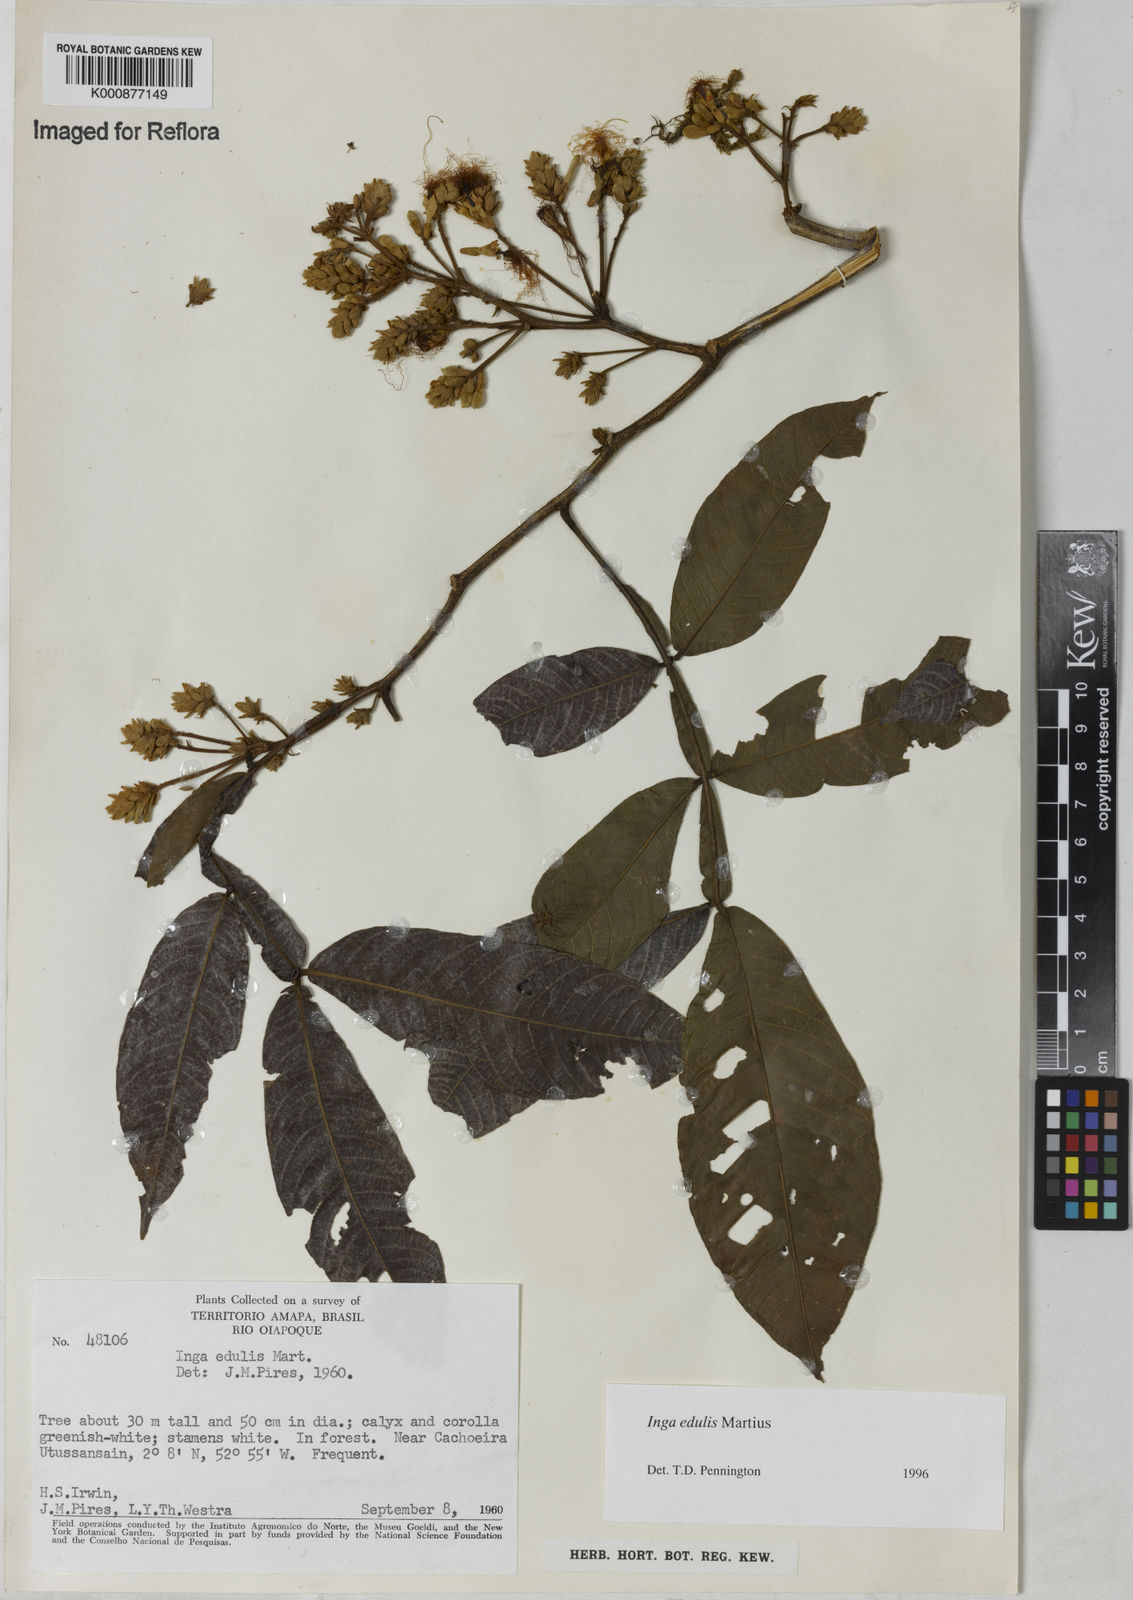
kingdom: Plantae
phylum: Tracheophyta
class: Magnoliopsida
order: Fabales
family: Fabaceae
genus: Inga
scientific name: Inga edulis
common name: Ice cream bean
